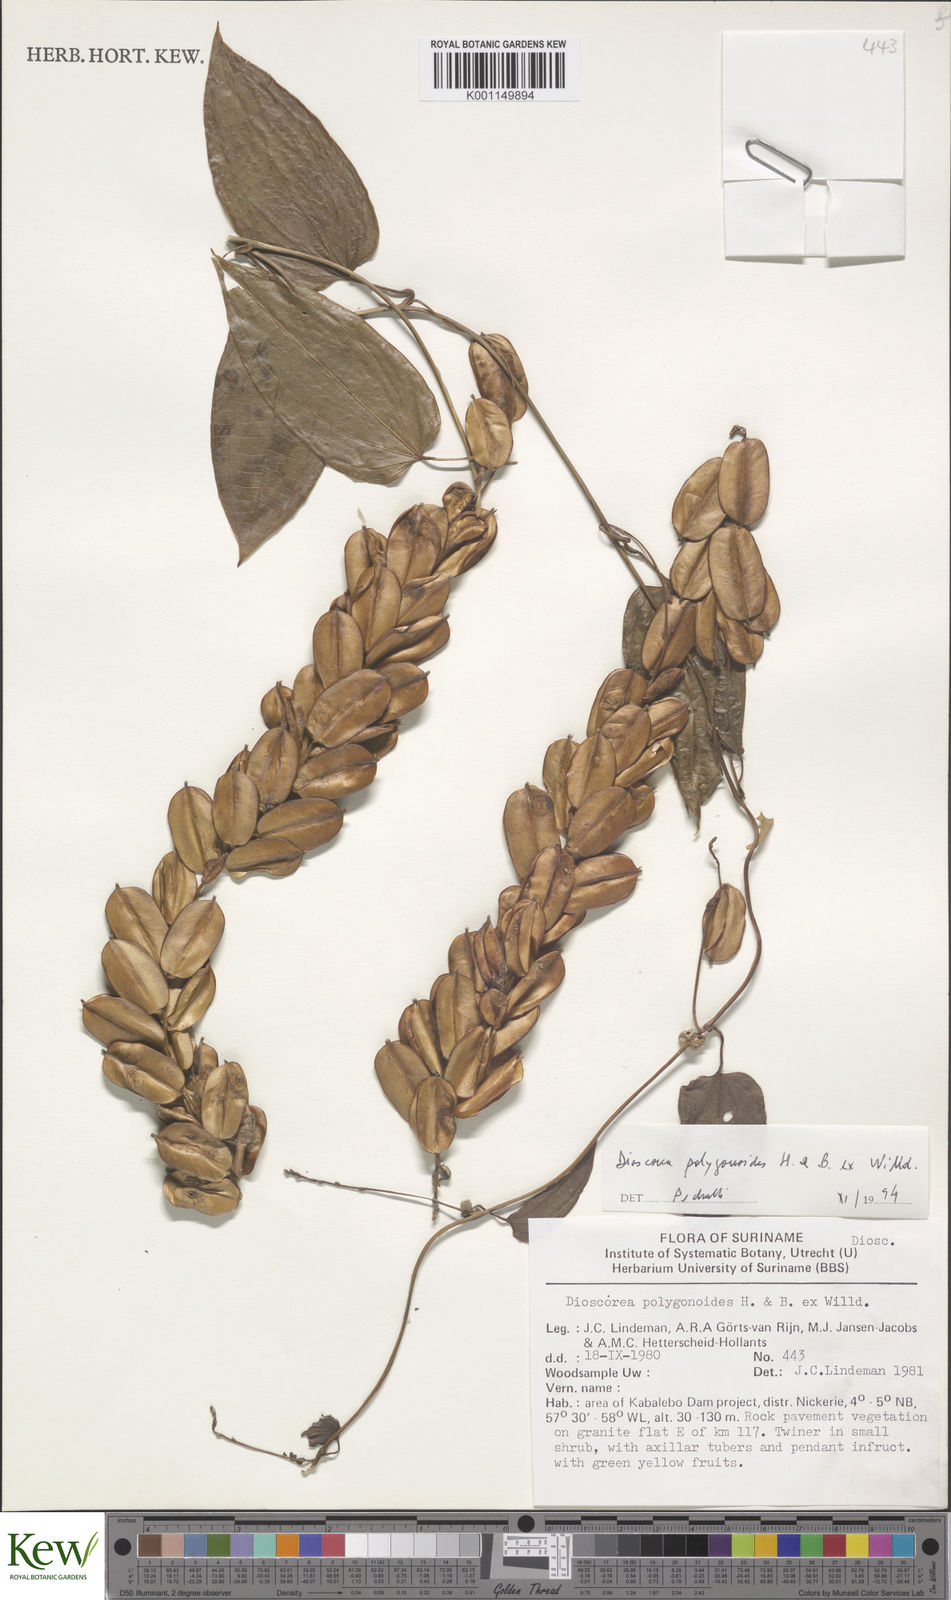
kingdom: Plantae
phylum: Tracheophyta
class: Liliopsida
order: Dioscoreales
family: Dioscoreaceae
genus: Dioscorea
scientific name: Dioscorea polygonoides
